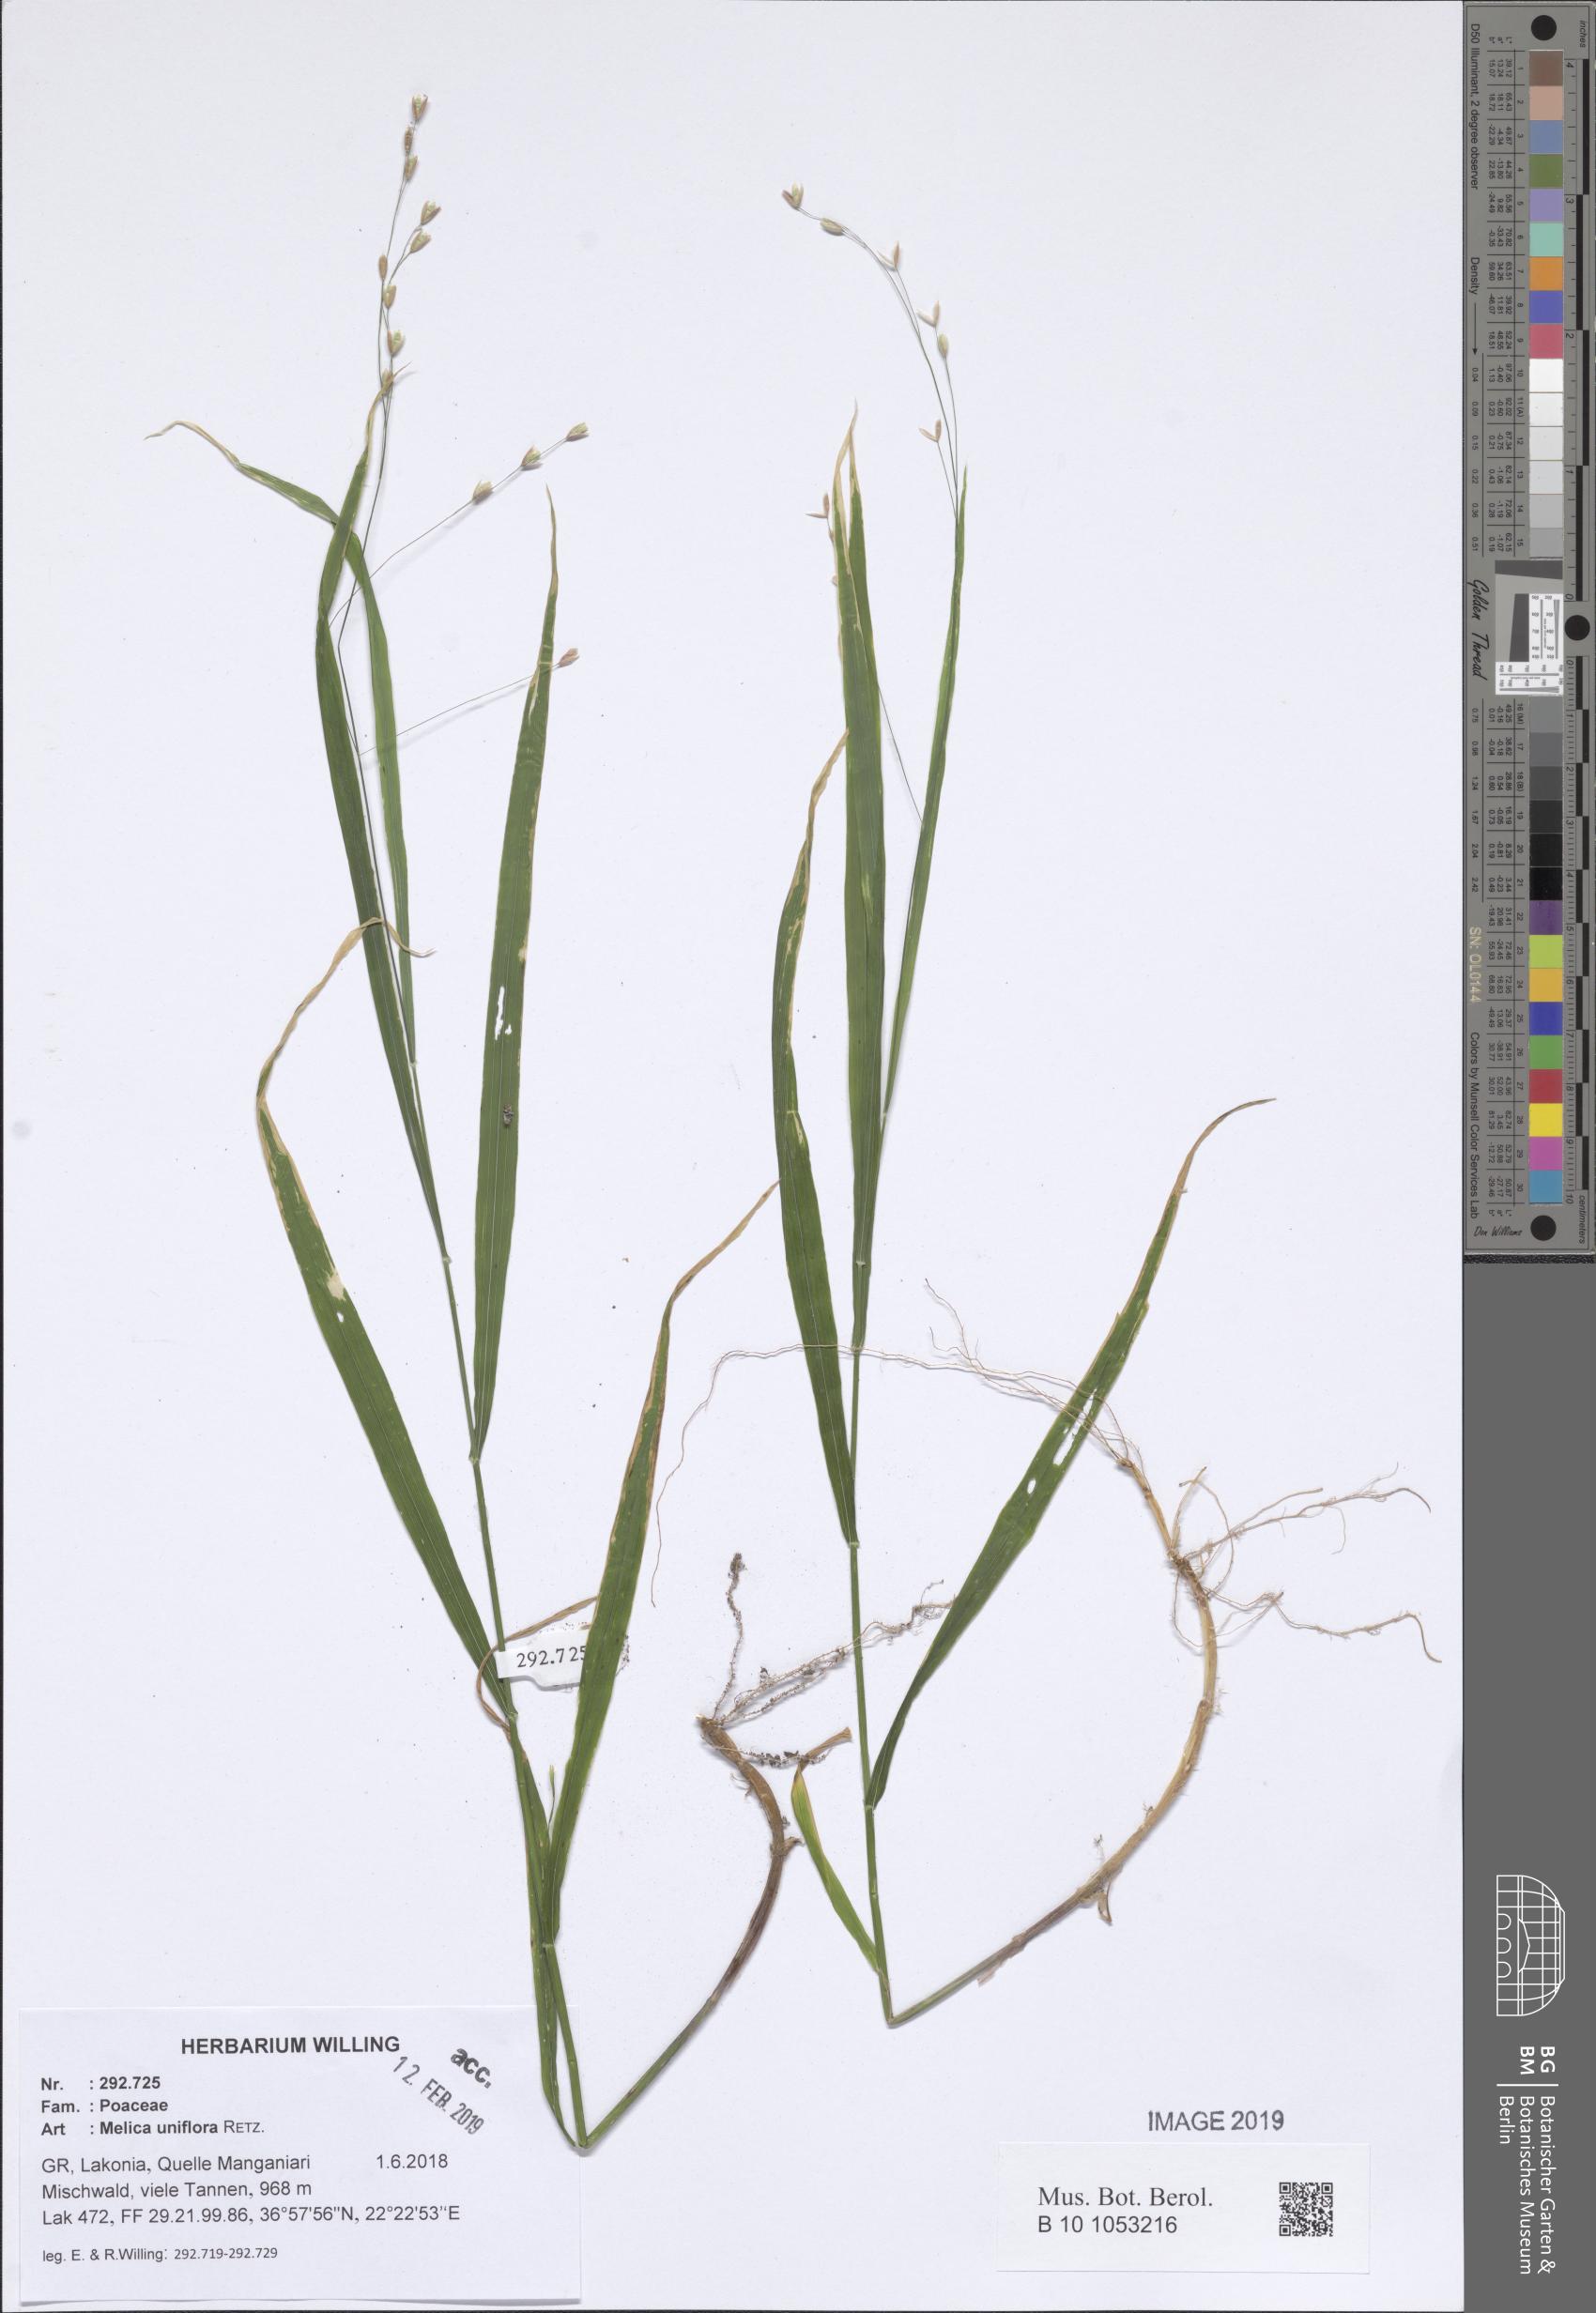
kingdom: Plantae
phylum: Tracheophyta
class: Liliopsida
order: Poales
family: Poaceae
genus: Melica
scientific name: Melica uniflora
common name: Wood melick
